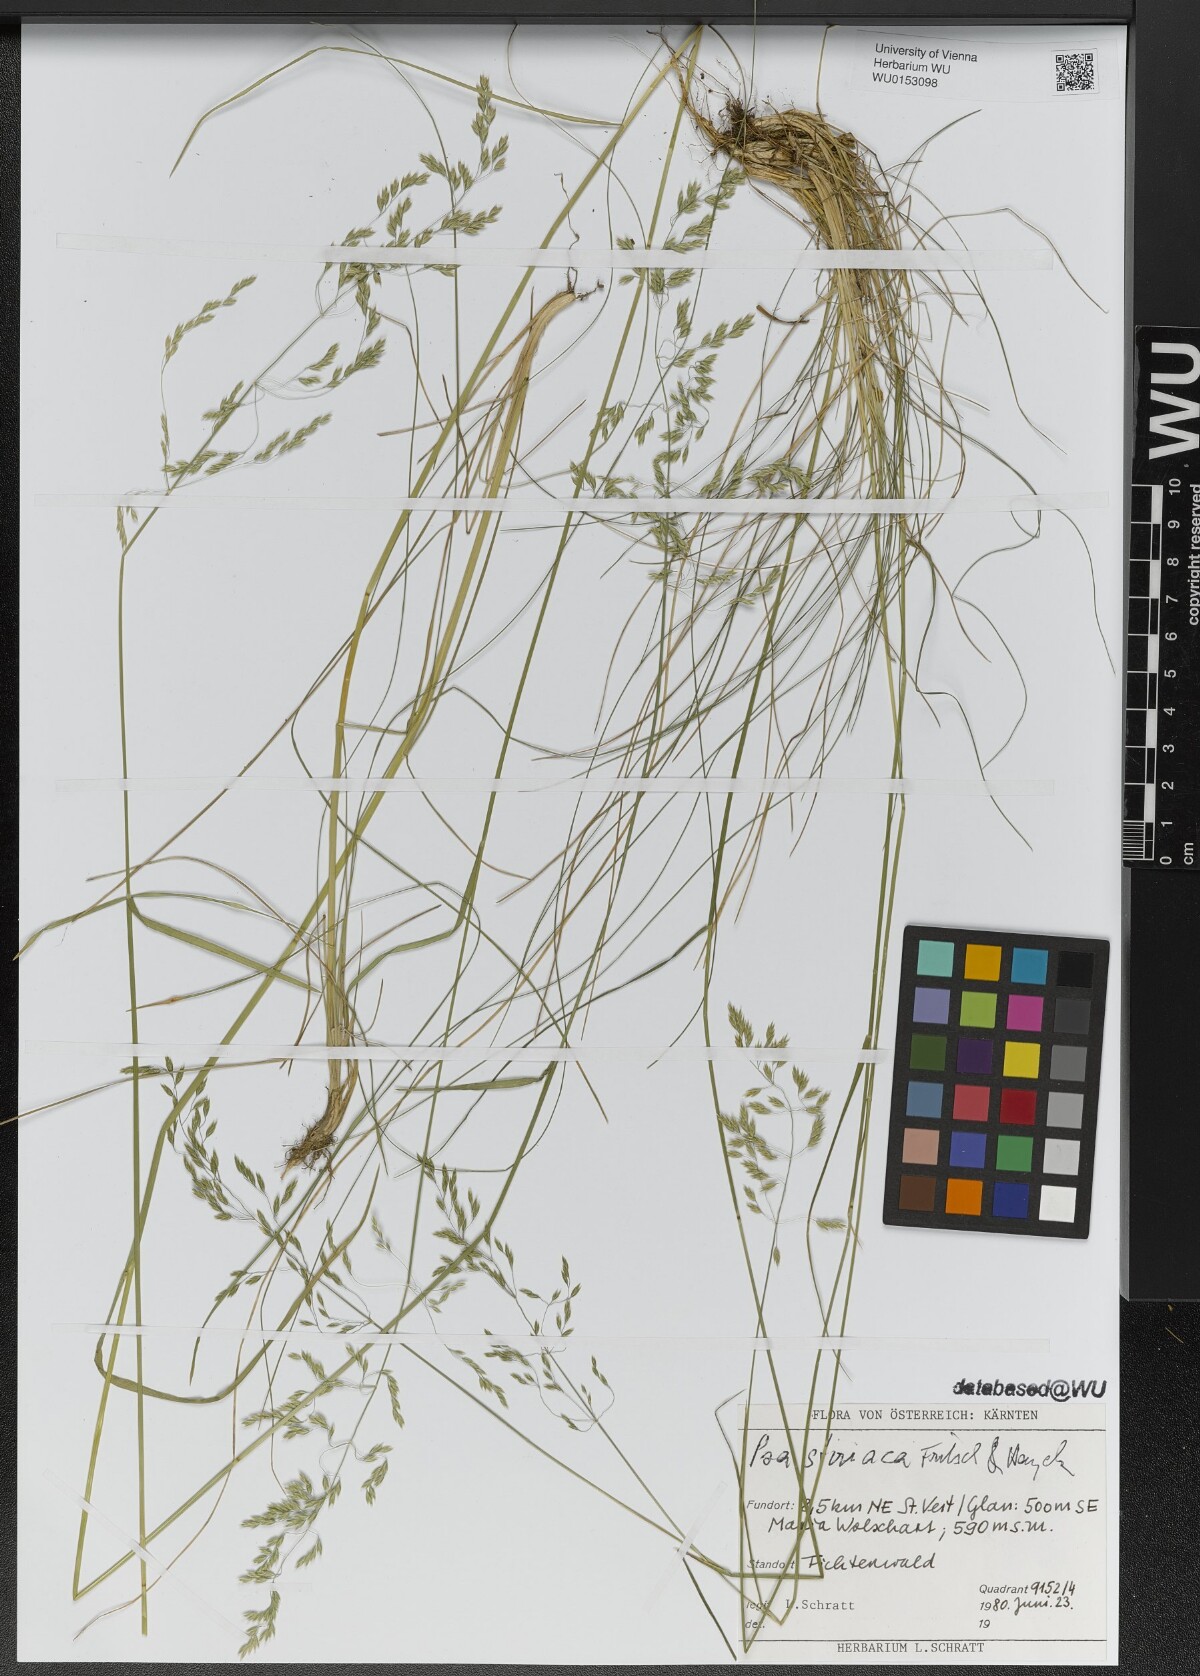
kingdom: Plantae
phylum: Tracheophyta
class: Liliopsida
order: Poales
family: Poaceae
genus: Poa
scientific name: Poa stiriaca
